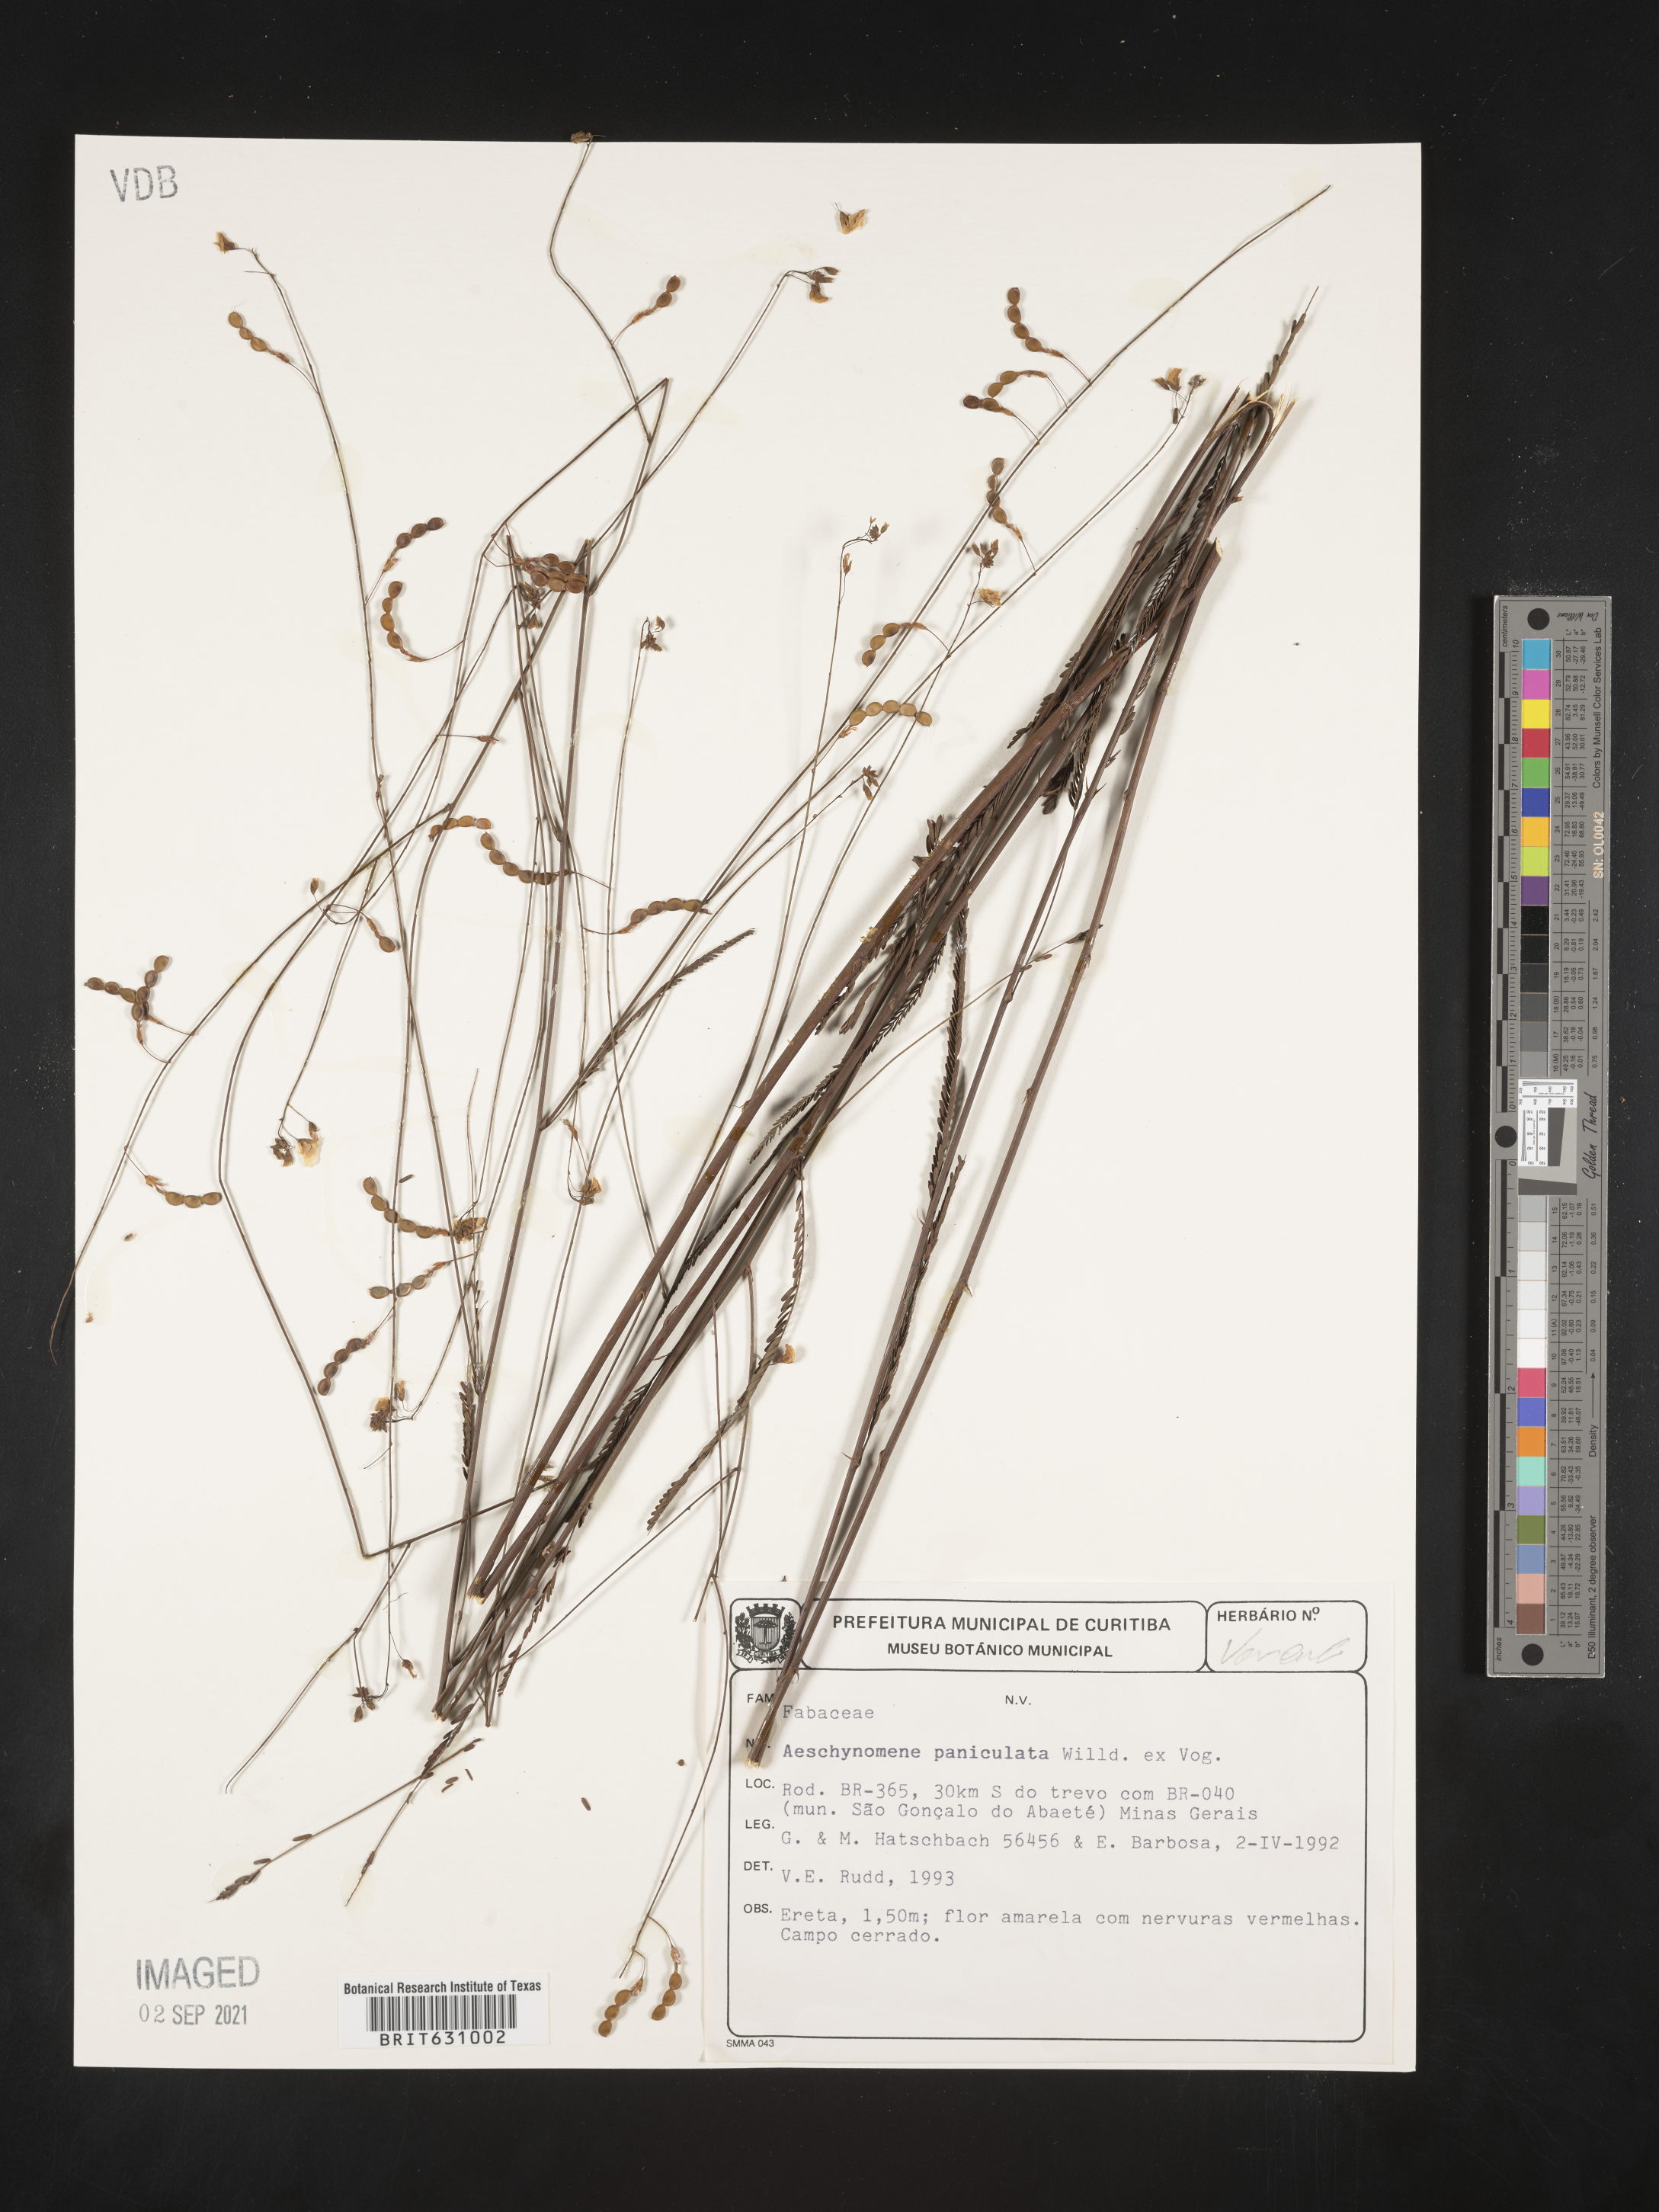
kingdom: Plantae
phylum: Tracheophyta
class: Magnoliopsida
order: Fabales
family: Fabaceae
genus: Aeschynomene
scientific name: Aeschynomene
